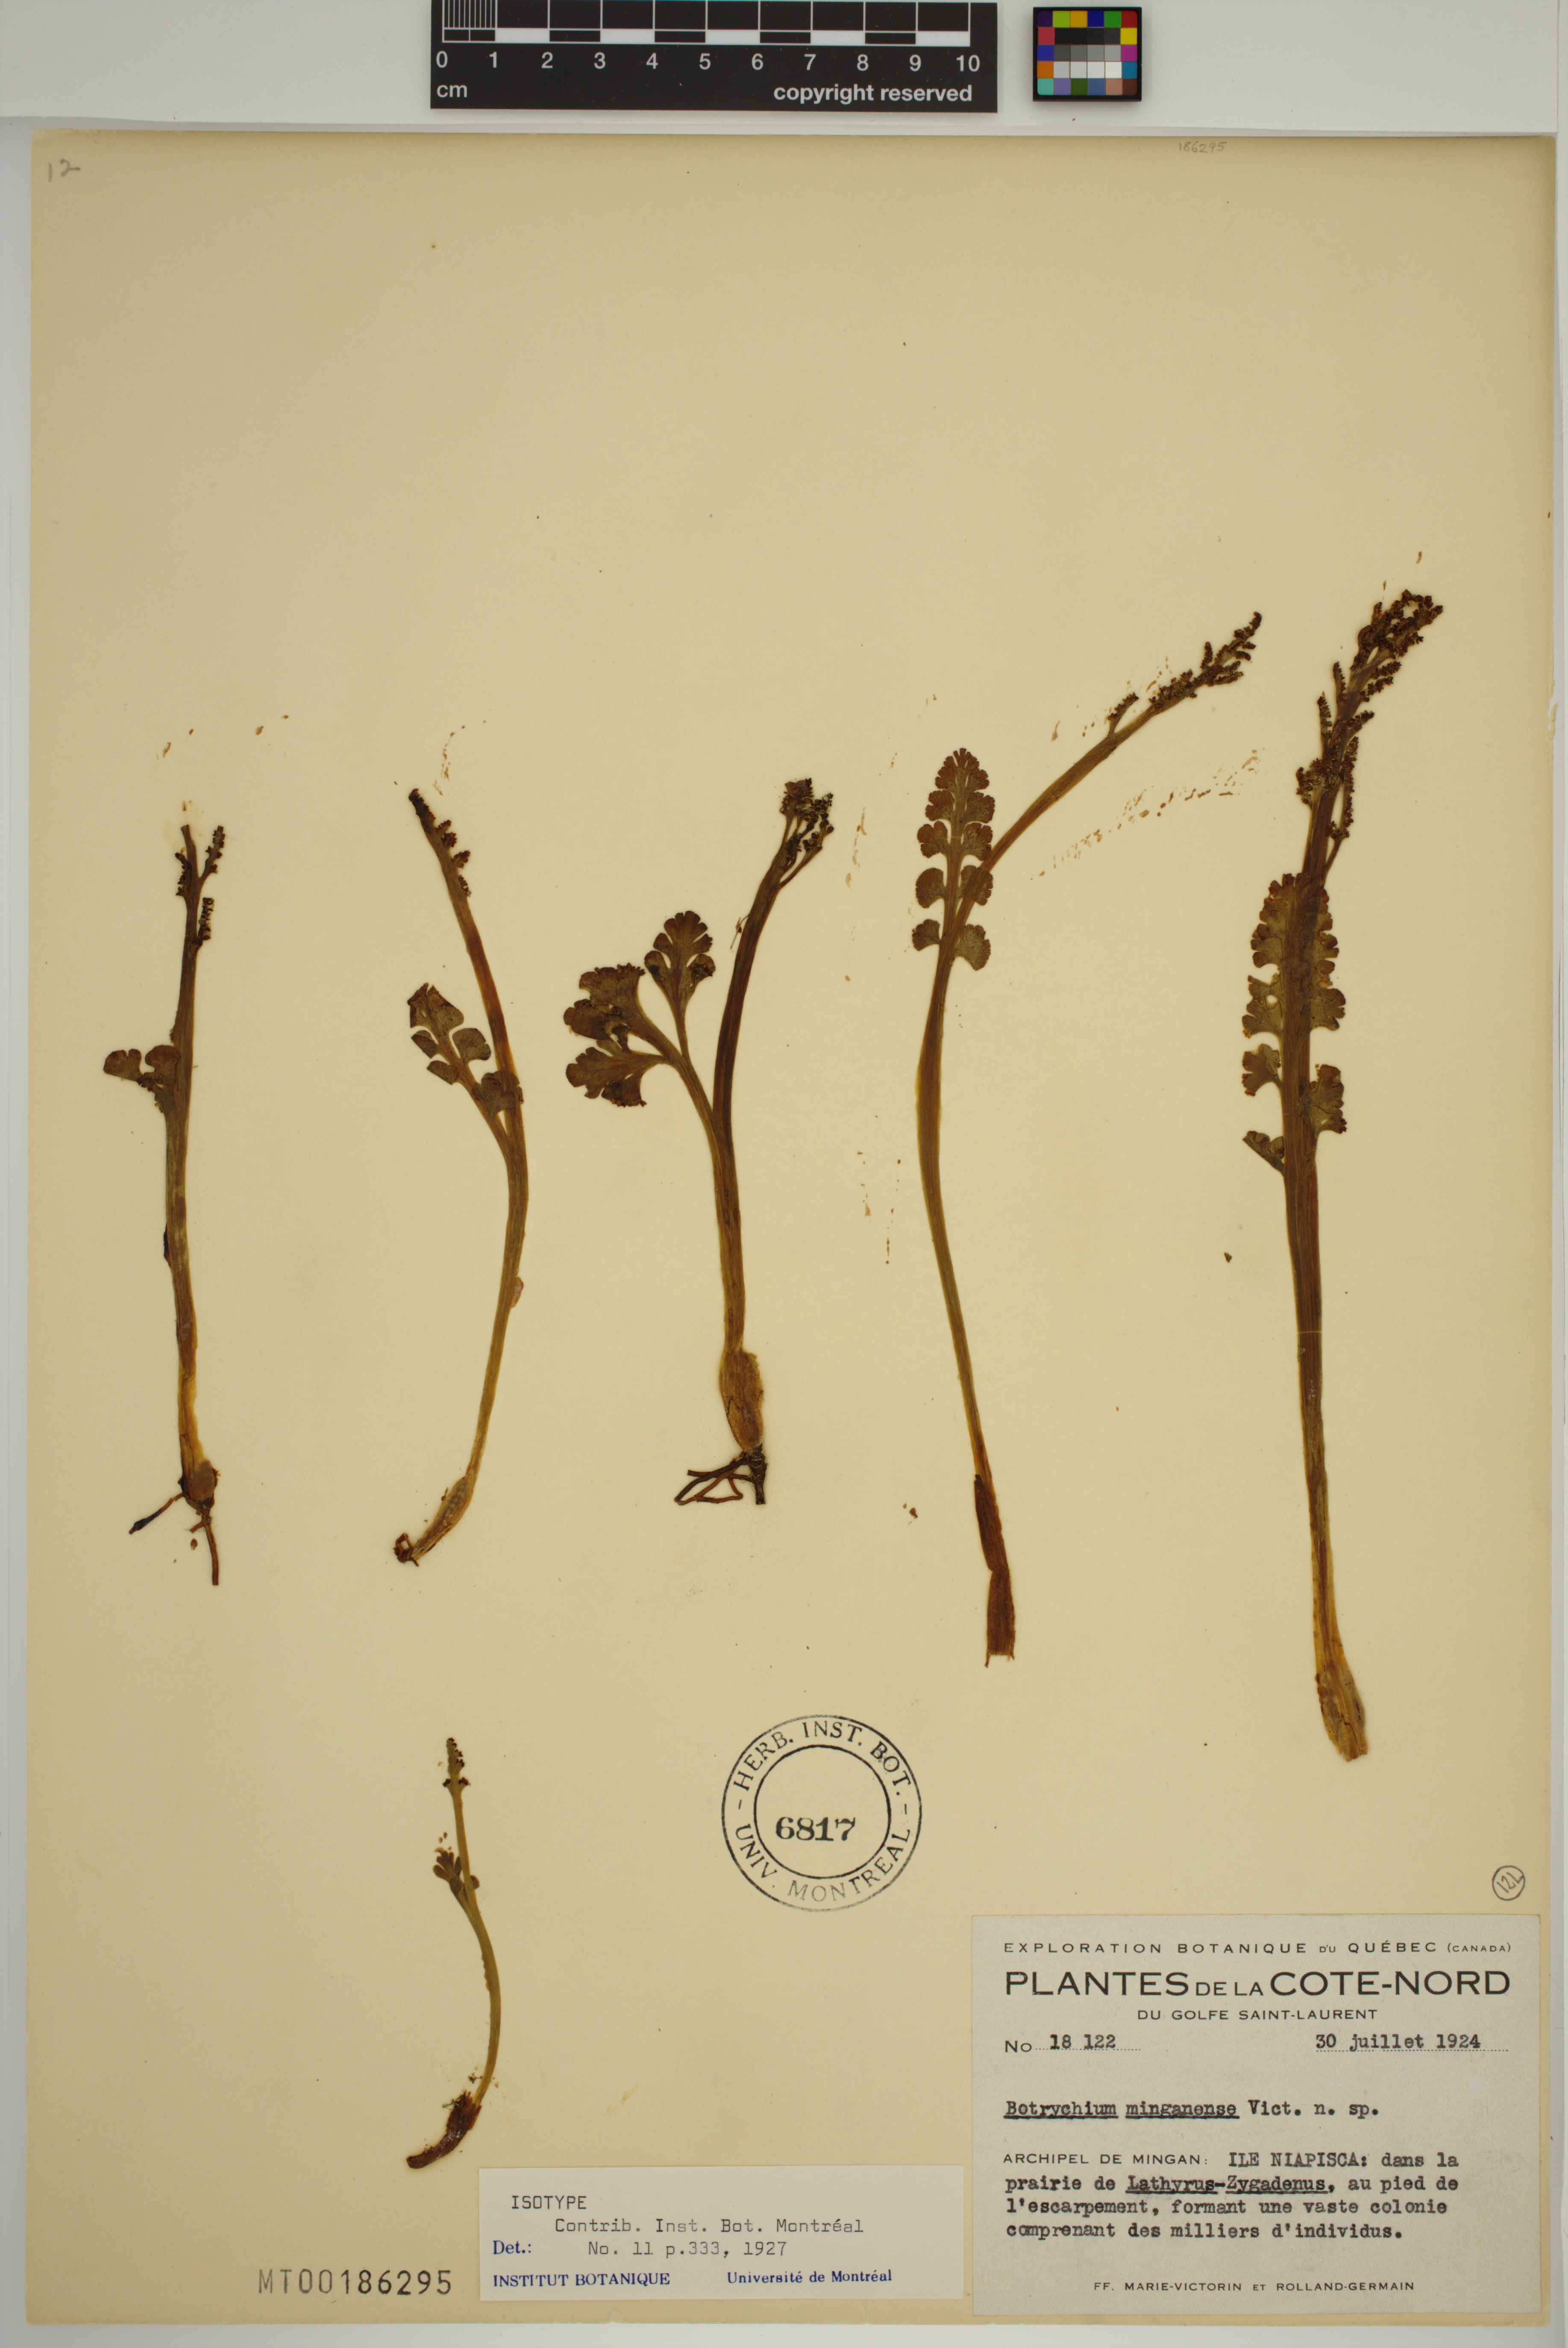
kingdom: Plantae
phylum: Tracheophyta
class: Polypodiopsida
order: Ophioglossales
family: Ophioglossaceae
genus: Botrychium
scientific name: Botrychium minganense
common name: Mingan grapefern
